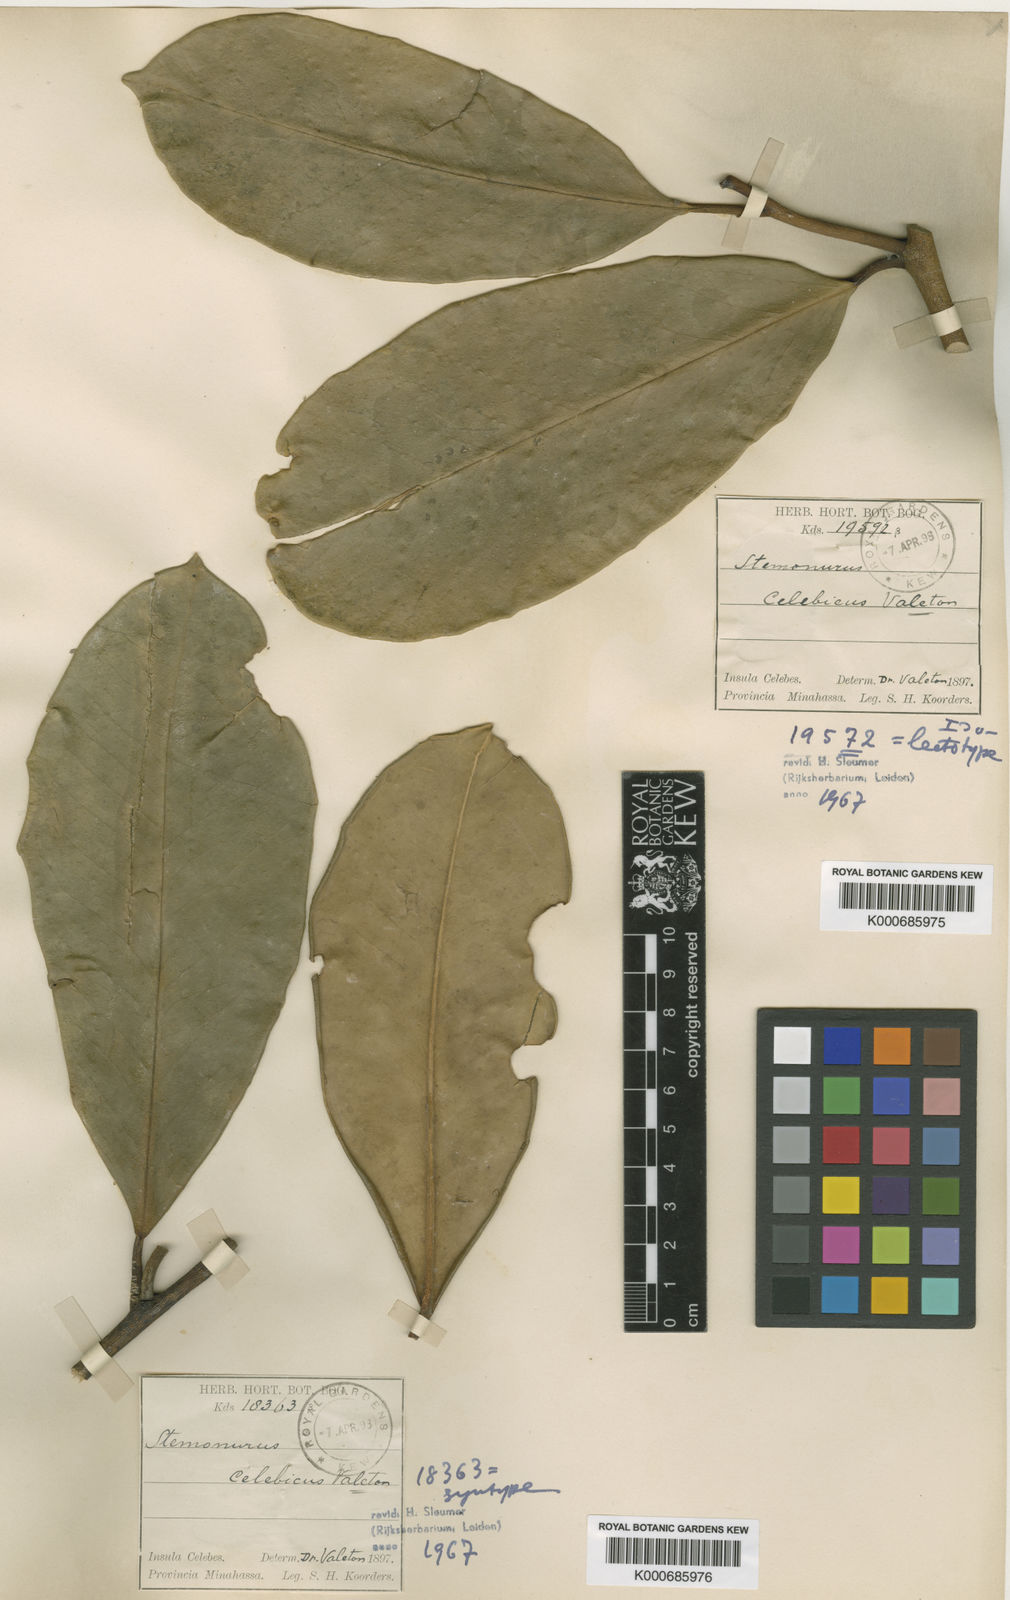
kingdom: Plantae
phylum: Tracheophyta
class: Magnoliopsida
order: Cardiopteridales
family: Stemonuraceae
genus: Stemonurus
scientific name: Stemonurus
